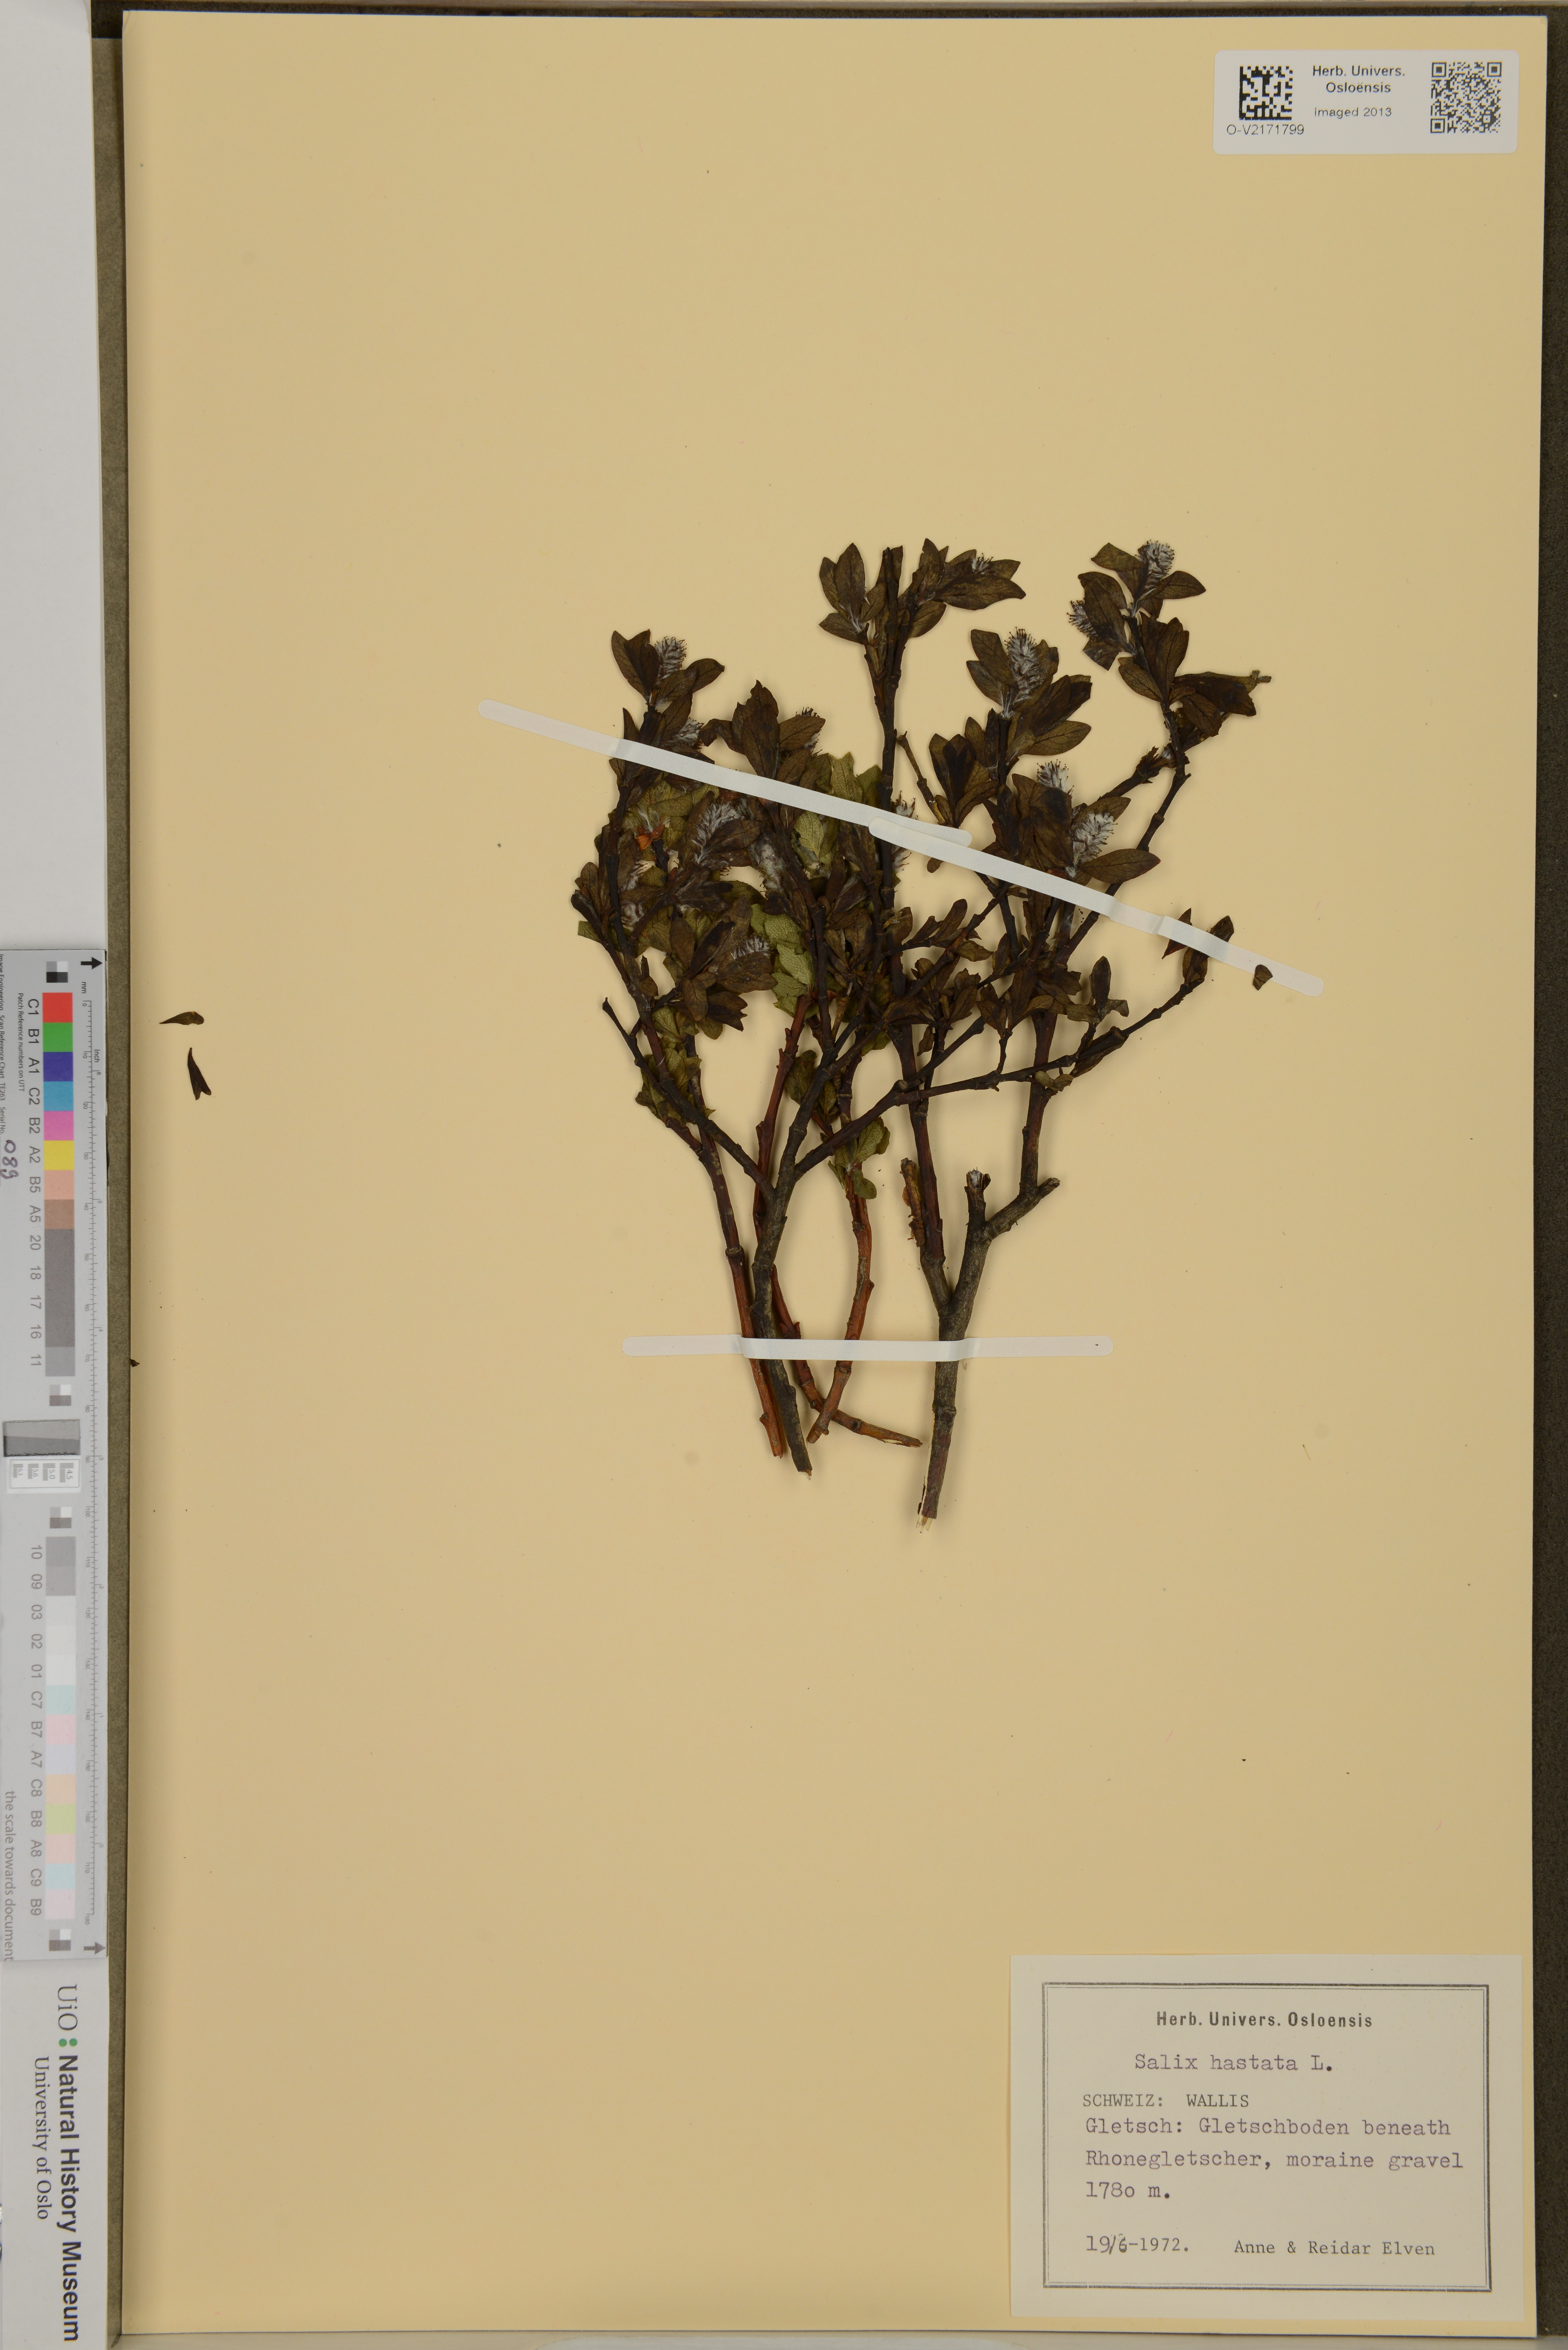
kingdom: Plantae
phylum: Tracheophyta
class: Magnoliopsida
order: Malpighiales
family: Salicaceae
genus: Salix
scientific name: Salix hastata
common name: Halberd willow
